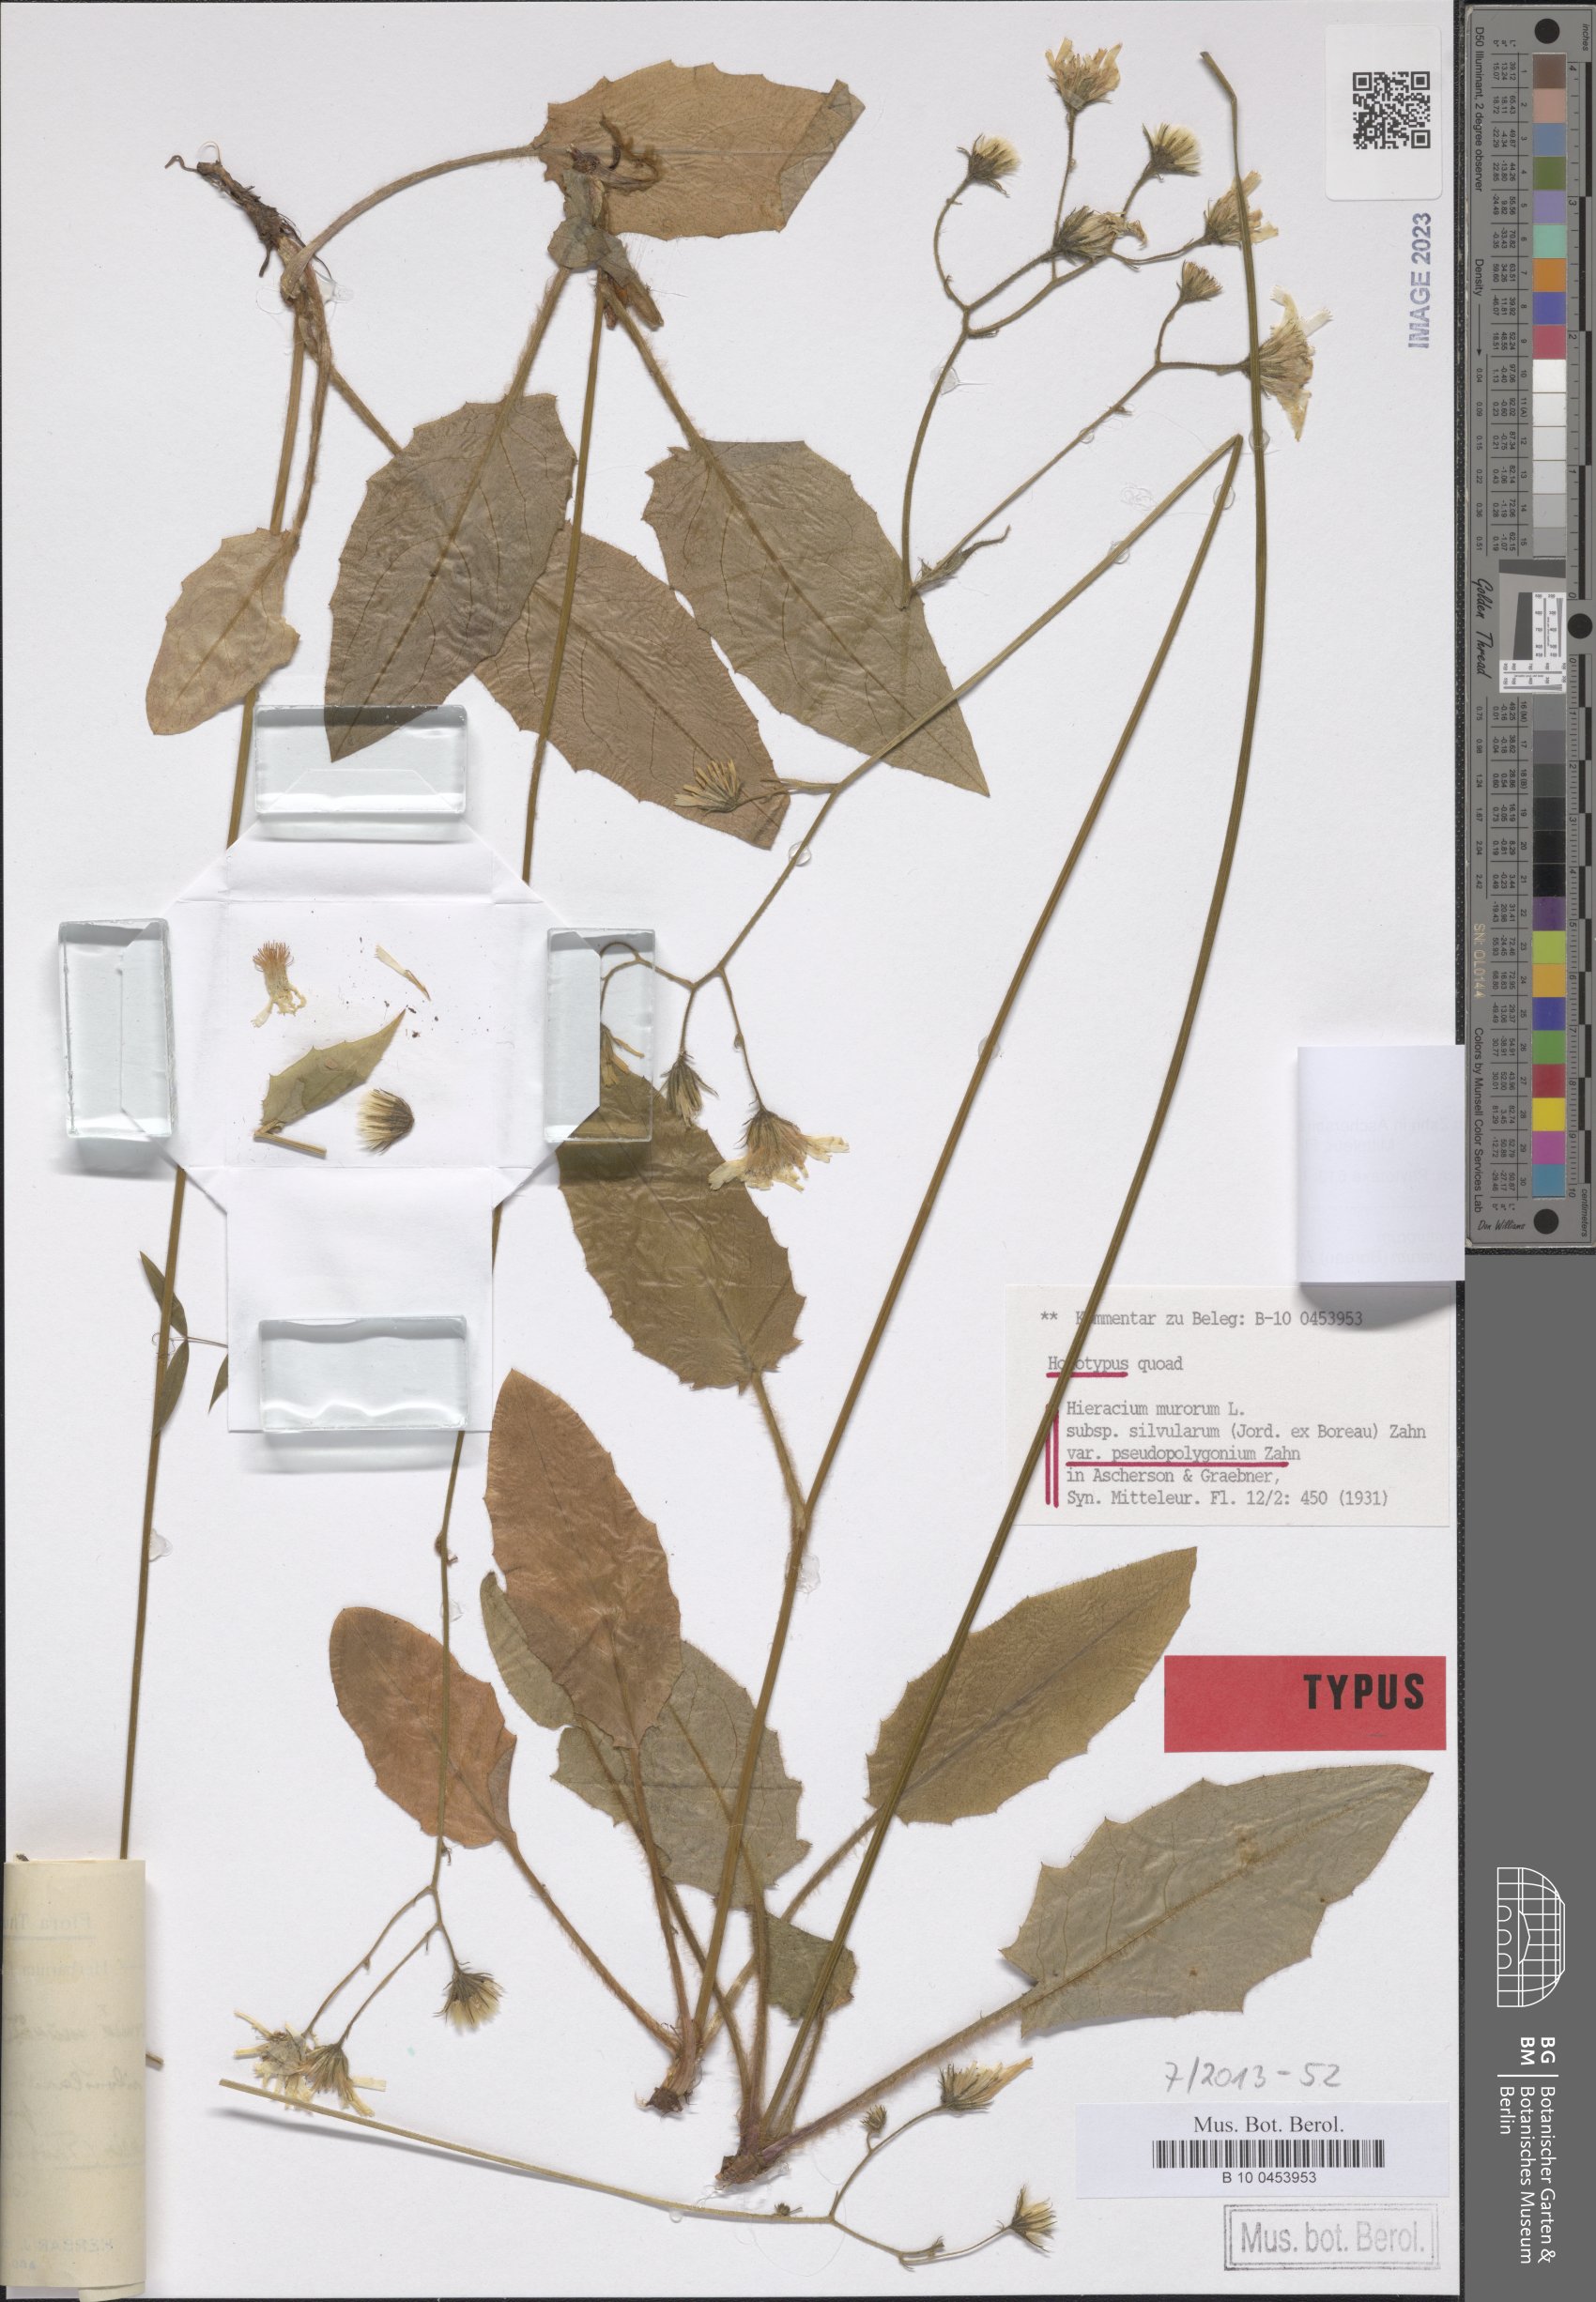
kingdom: Plantae
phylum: Tracheophyta
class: Magnoliopsida
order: Asterales
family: Asteraceae
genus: Hieracium
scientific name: Hieracium murorum
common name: Wall hawkweed
